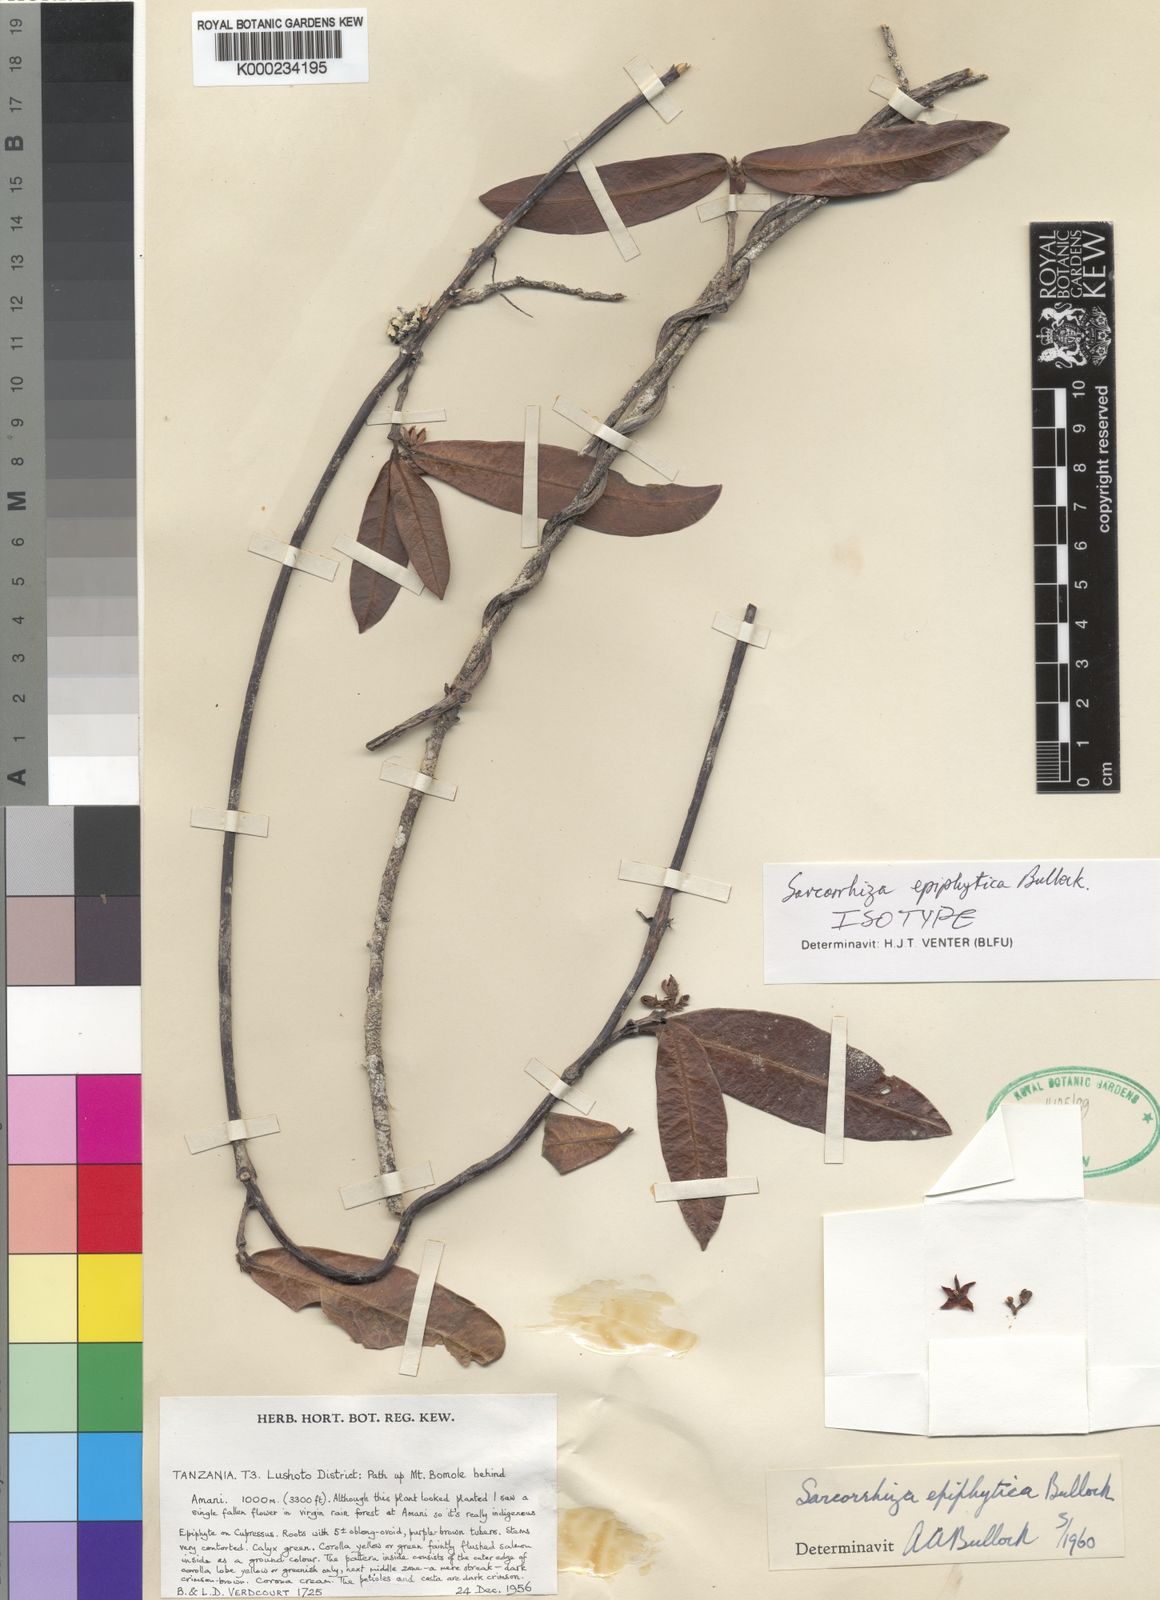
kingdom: Plantae
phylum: Tracheophyta
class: Magnoliopsida
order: Gentianales
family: Apocynaceae
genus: Sarcorrhiza
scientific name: Sarcorrhiza epiphytica
